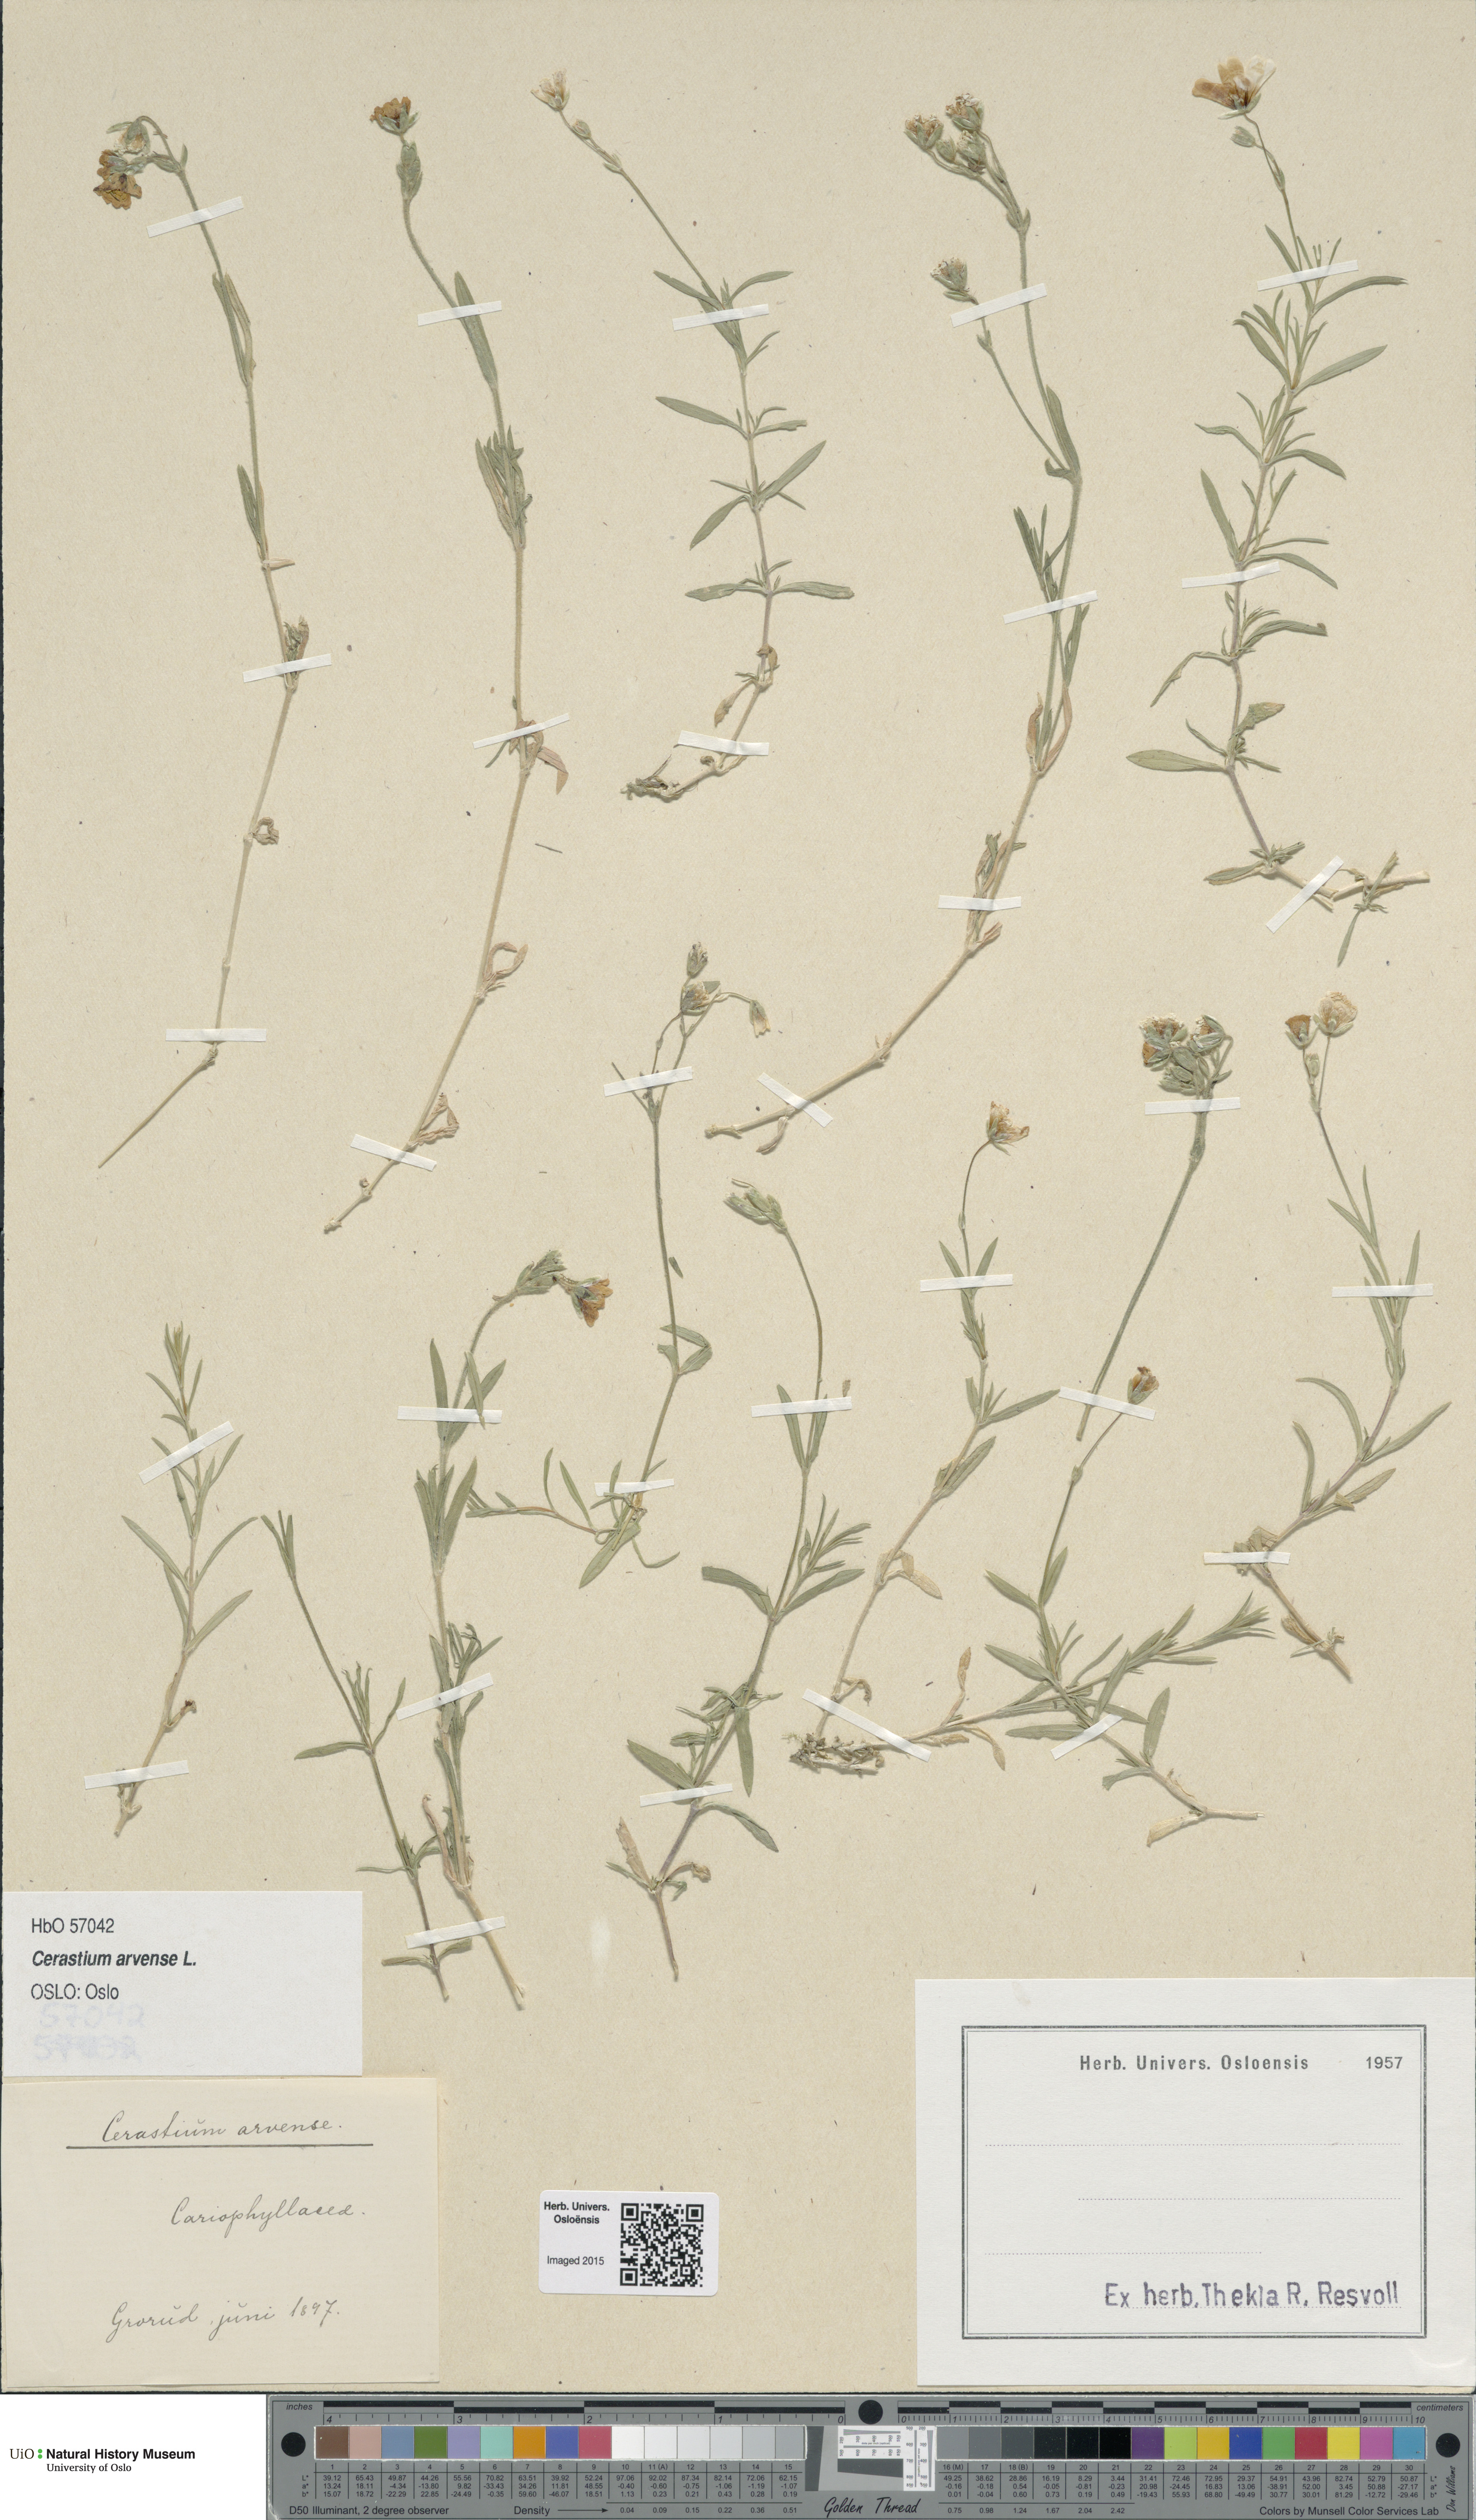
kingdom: Plantae
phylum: Tracheophyta
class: Magnoliopsida
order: Caryophyllales
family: Caryophyllaceae
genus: Cerastium
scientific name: Cerastium arvense
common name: Field mouse-ear
